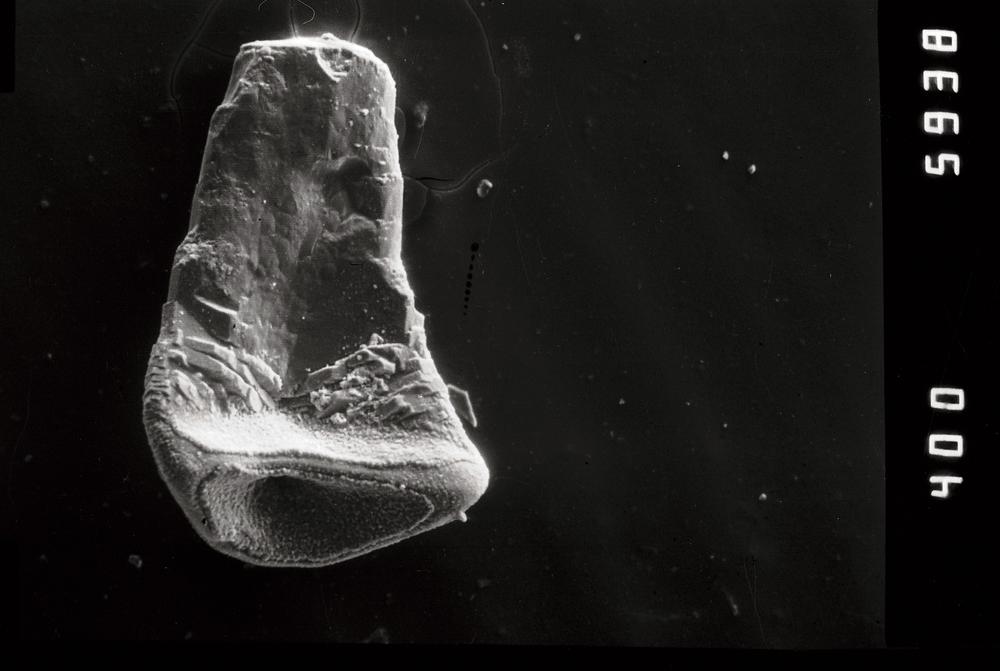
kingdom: Animalia
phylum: Chordata
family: Protopanderodontidae
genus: Juanognathus
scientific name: Juanognathus
